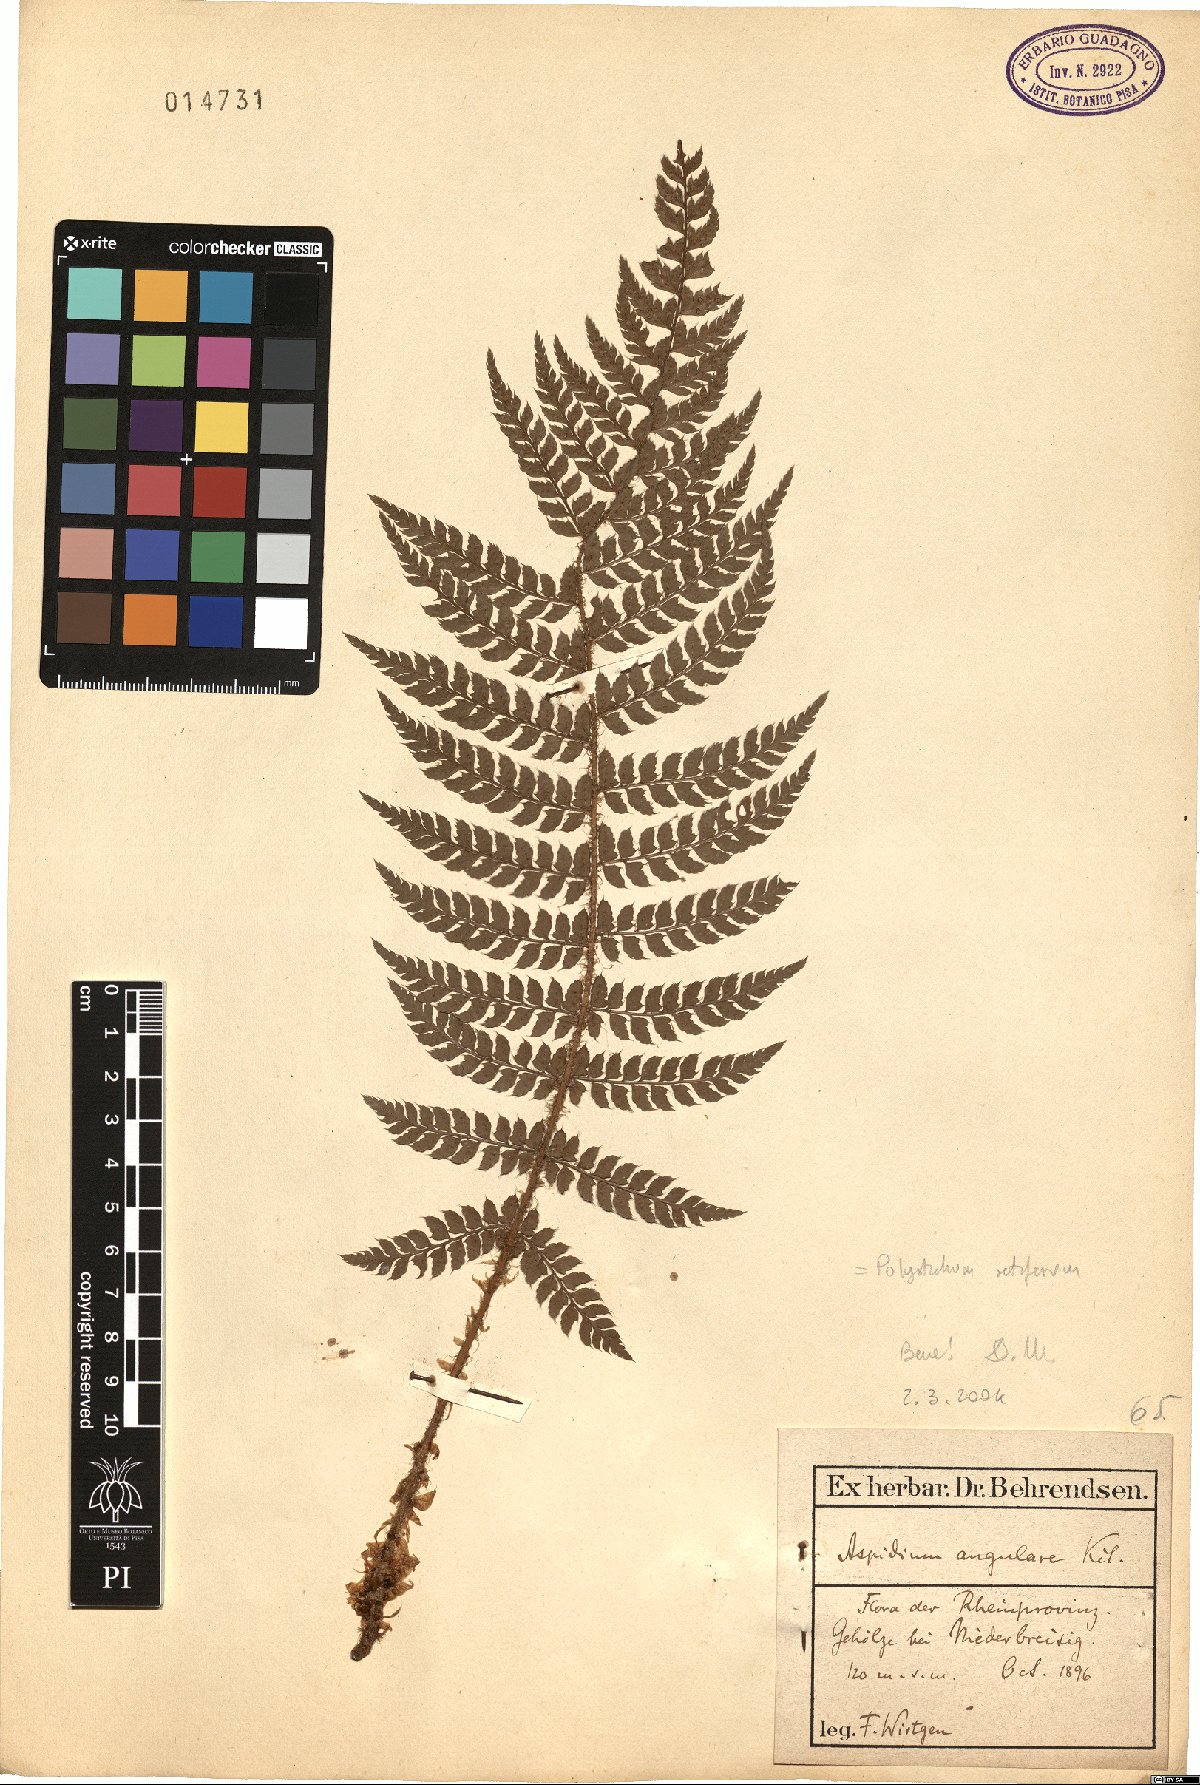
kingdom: Plantae
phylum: Tracheophyta
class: Polypodiopsida
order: Polypodiales
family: Dryopteridaceae
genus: Polystichum
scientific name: Polystichum setiferum
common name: Soft shield-fern
